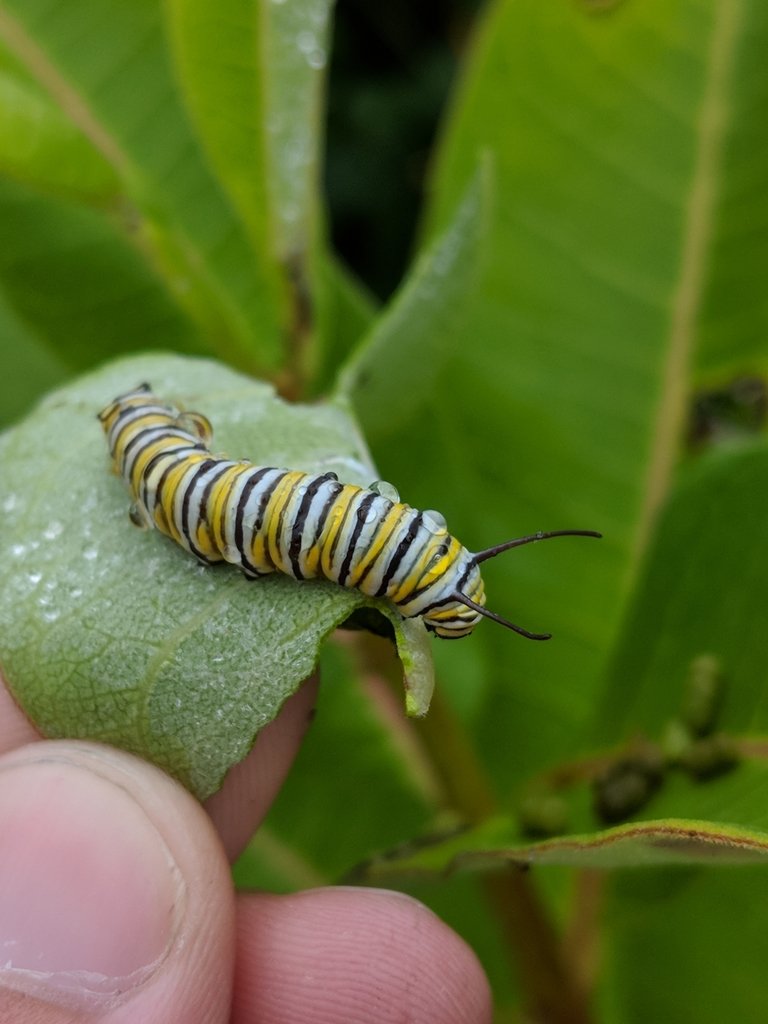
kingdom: Animalia
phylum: Arthropoda
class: Insecta
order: Lepidoptera
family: Nymphalidae
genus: Danaus
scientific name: Danaus plexippus
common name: Monarch
